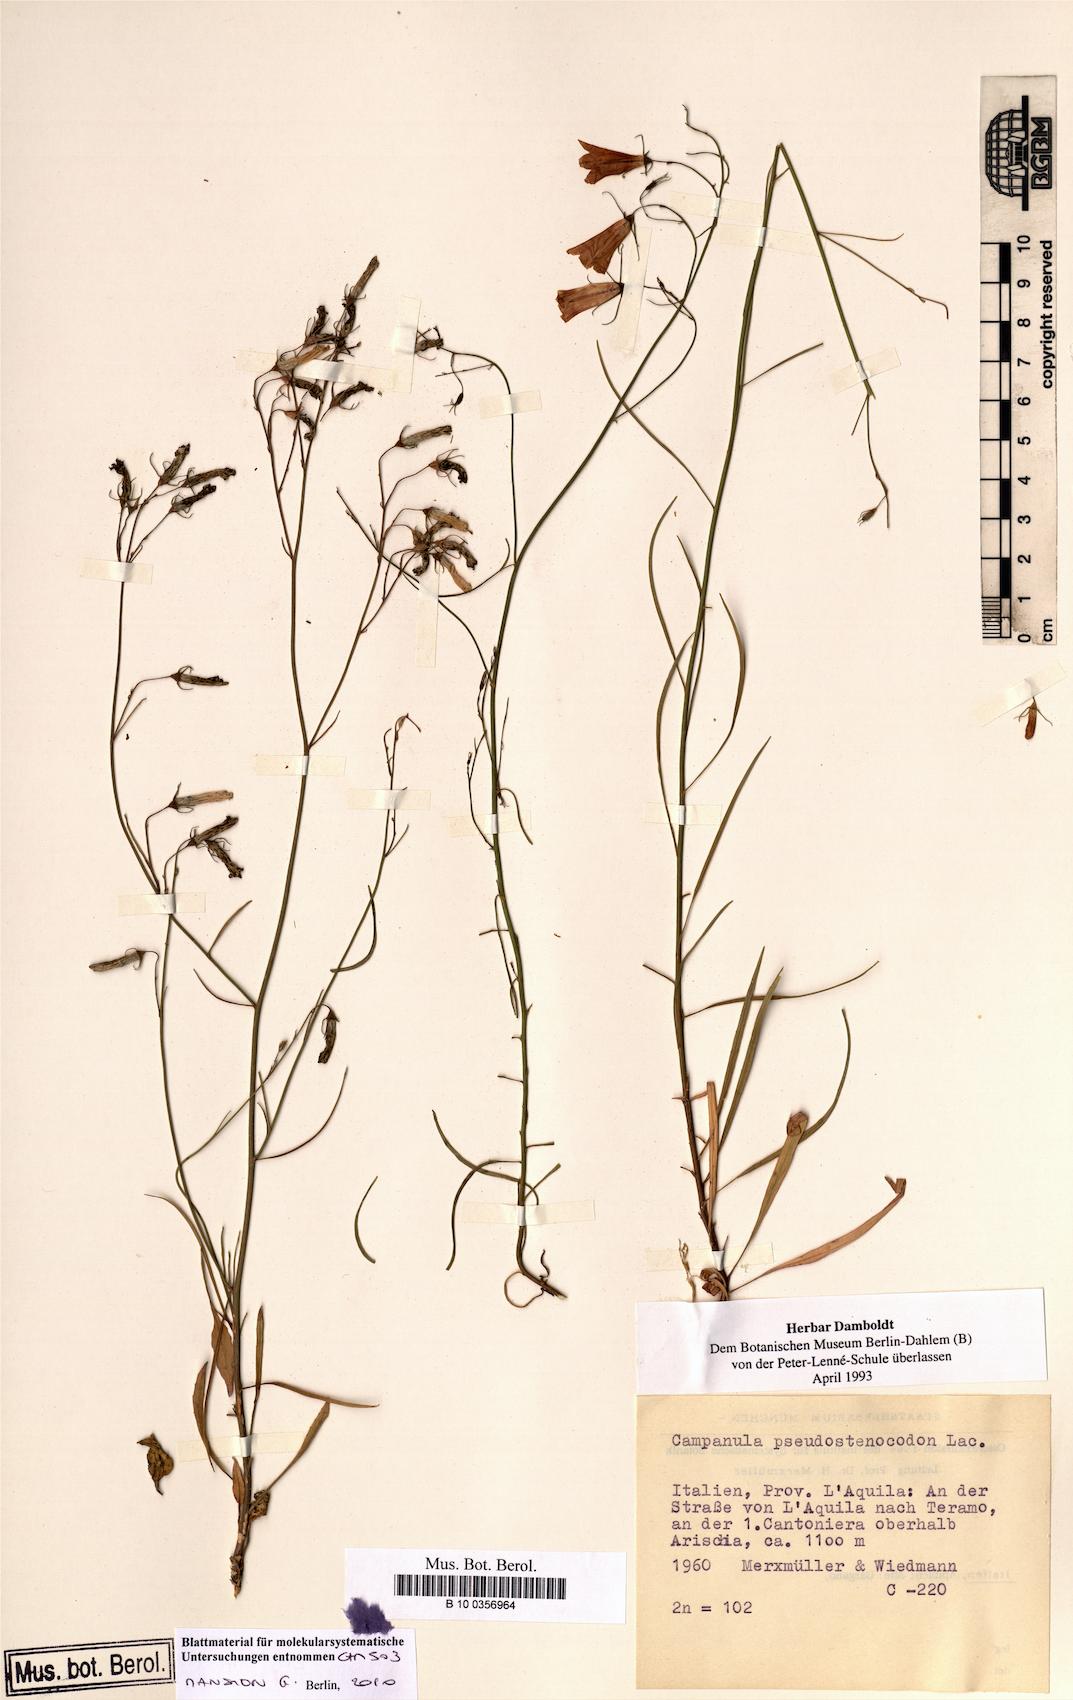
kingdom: Plantae
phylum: Tracheophyta
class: Magnoliopsida
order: Asterales
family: Campanulaceae
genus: Campanula
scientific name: Campanula pseudostenocodon
